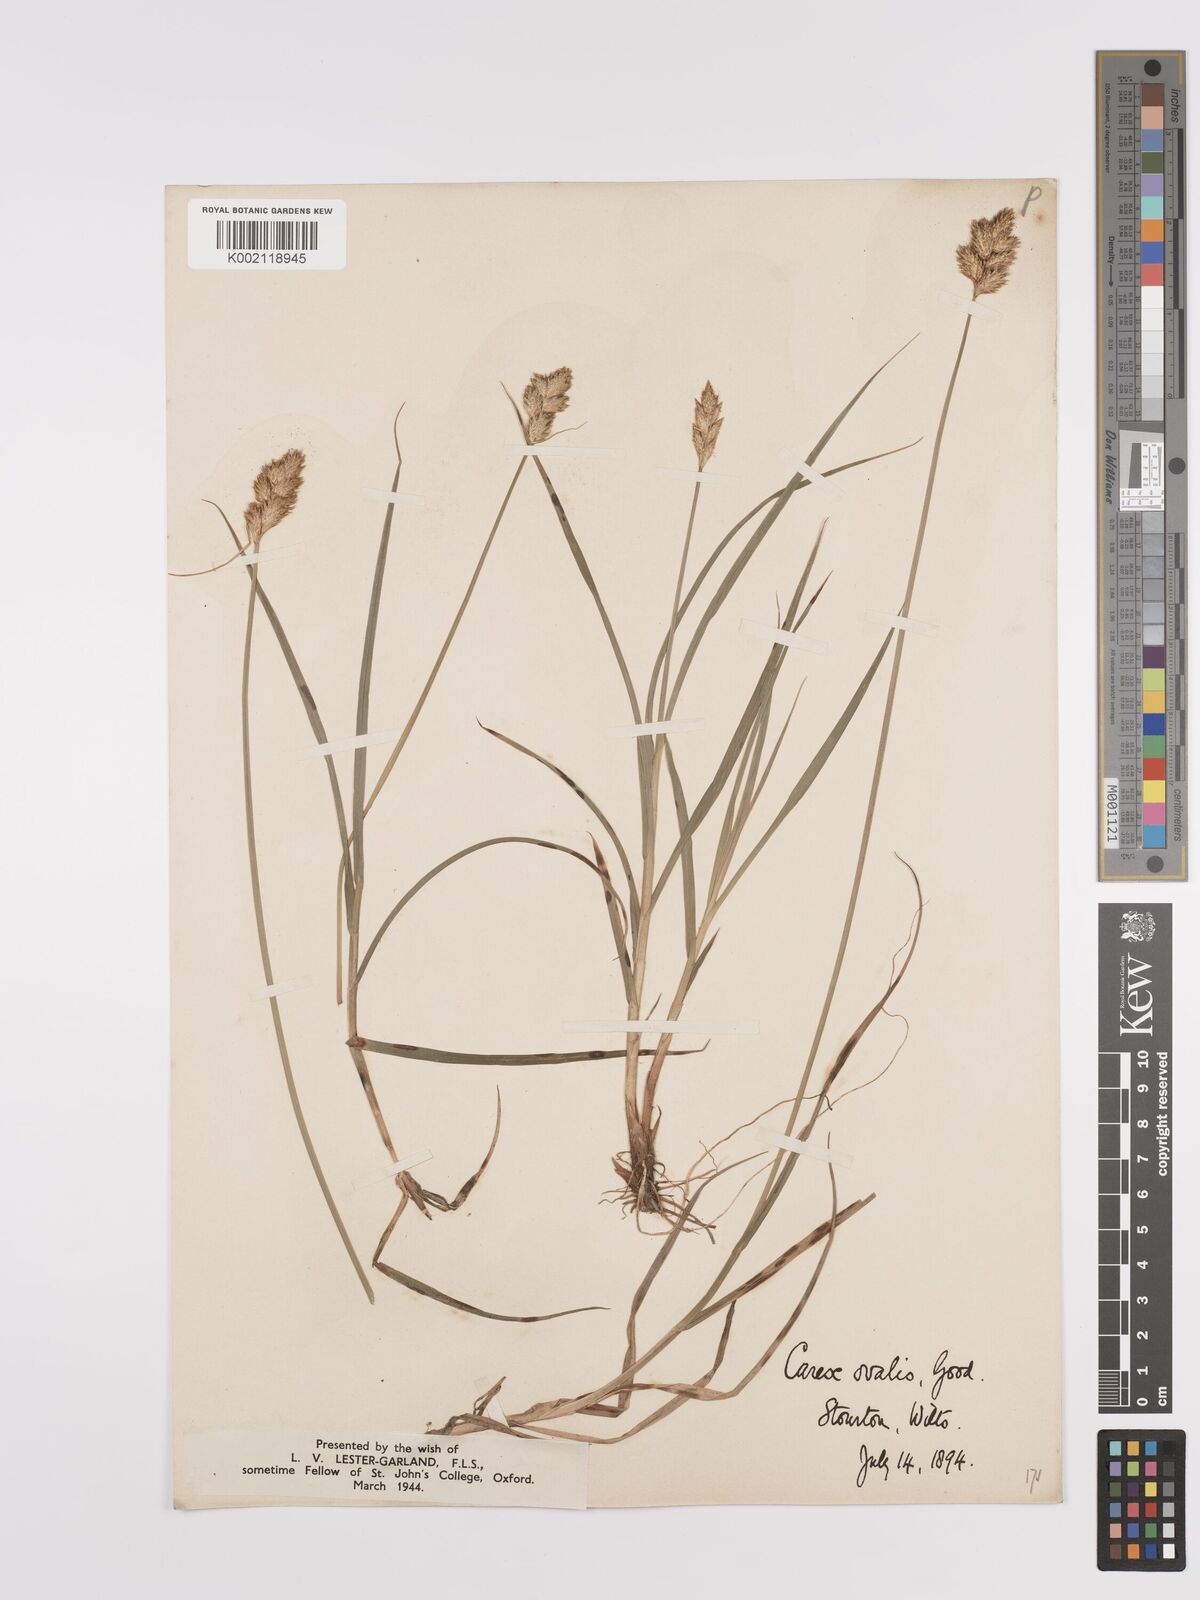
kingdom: Plantae
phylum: Tracheophyta
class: Liliopsida
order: Poales
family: Cyperaceae
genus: Carex
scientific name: Carex leporina
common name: Oval sedge
